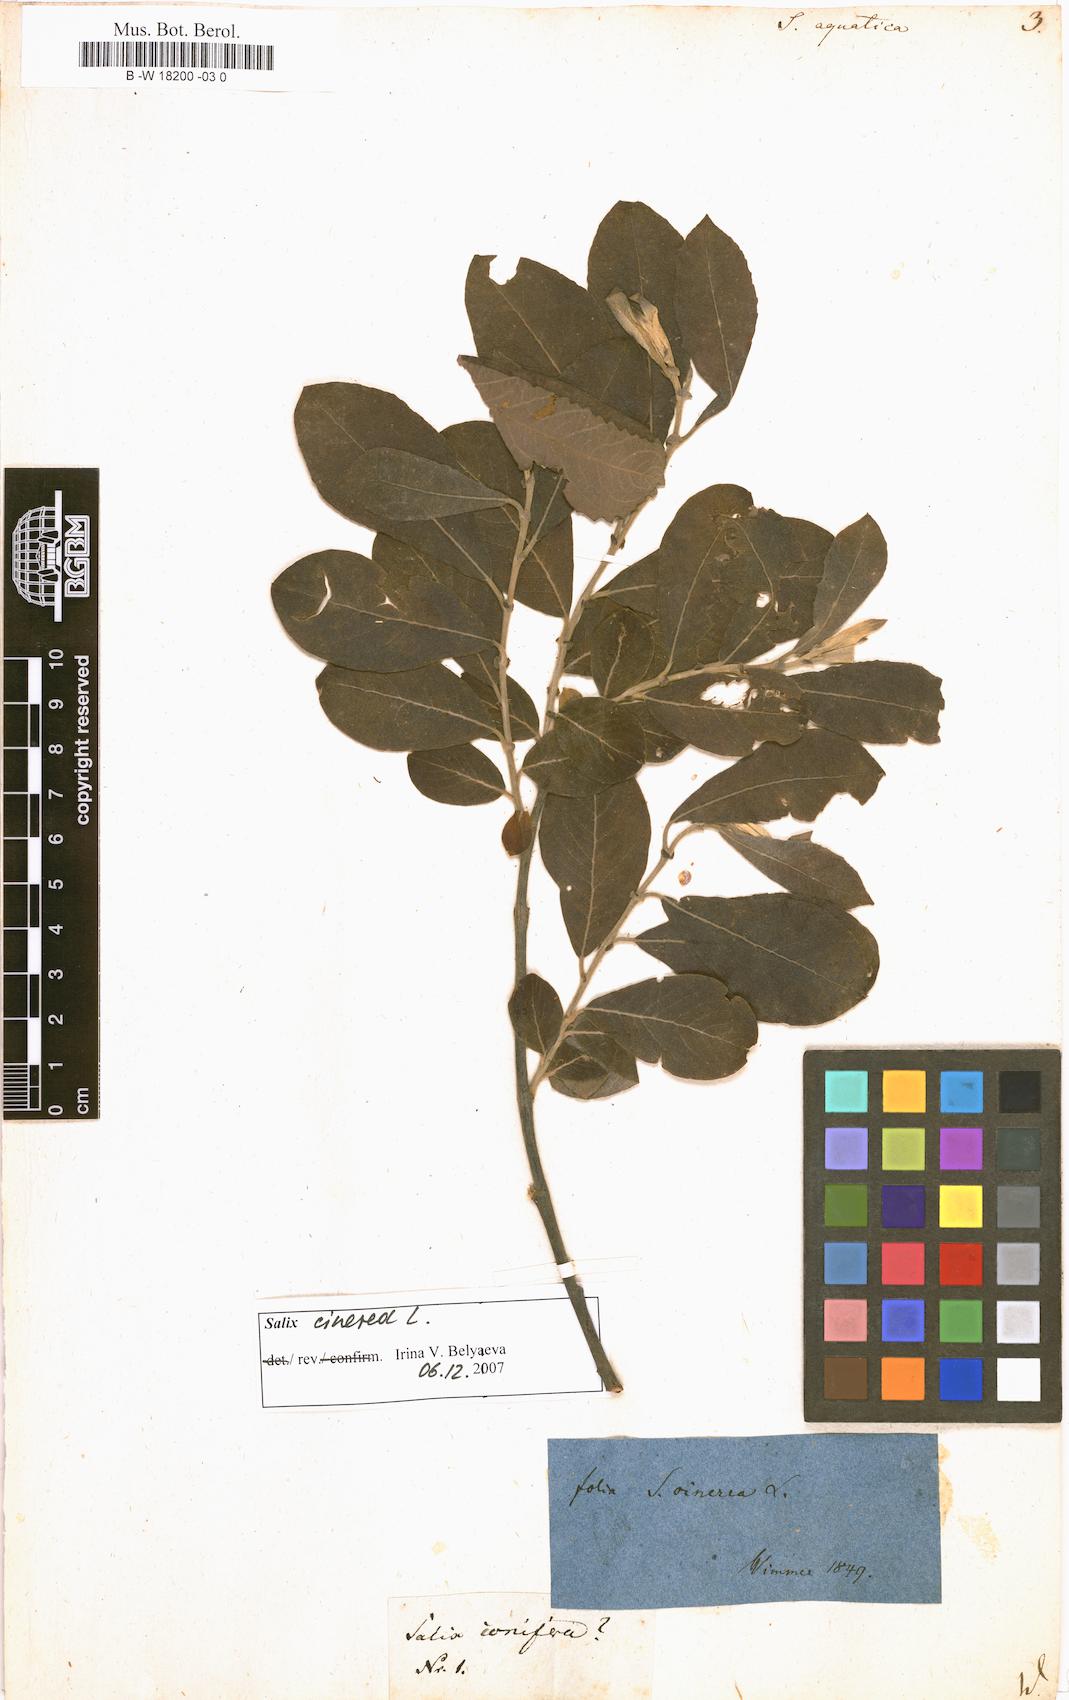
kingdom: Plantae
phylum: Tracheophyta
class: Magnoliopsida
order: Malpighiales
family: Salicaceae
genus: Salix
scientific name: Salix
